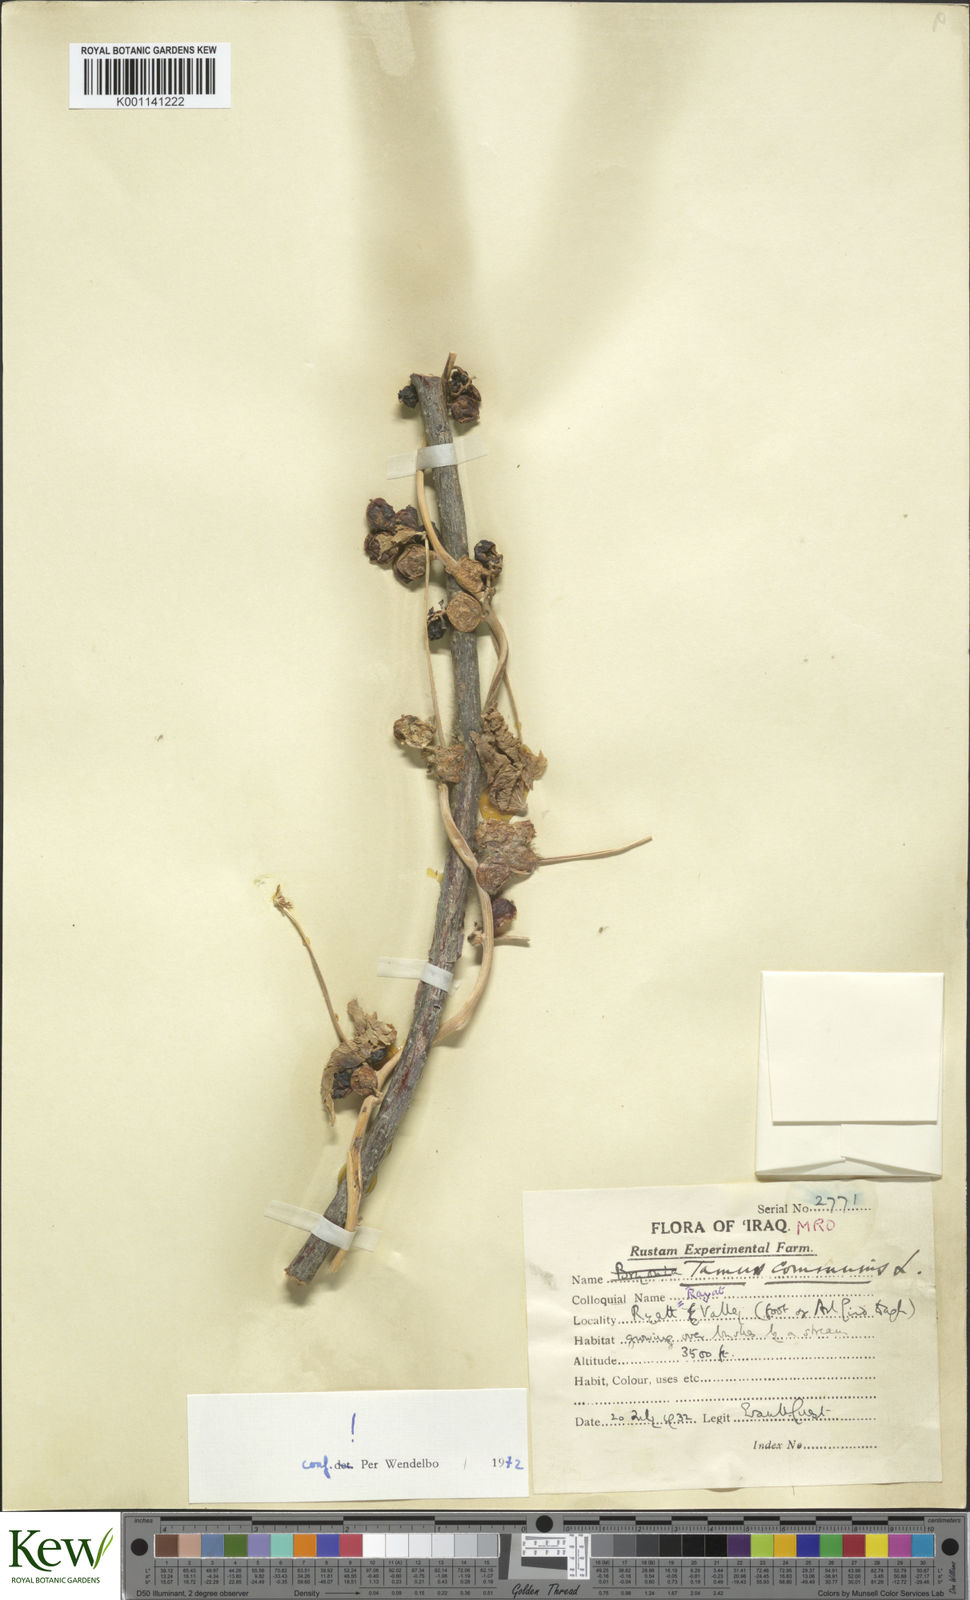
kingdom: Plantae
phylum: Tracheophyta
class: Liliopsida
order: Dioscoreales
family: Dioscoreaceae
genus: Dioscorea
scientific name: Dioscorea communis
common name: Black-bindweed
